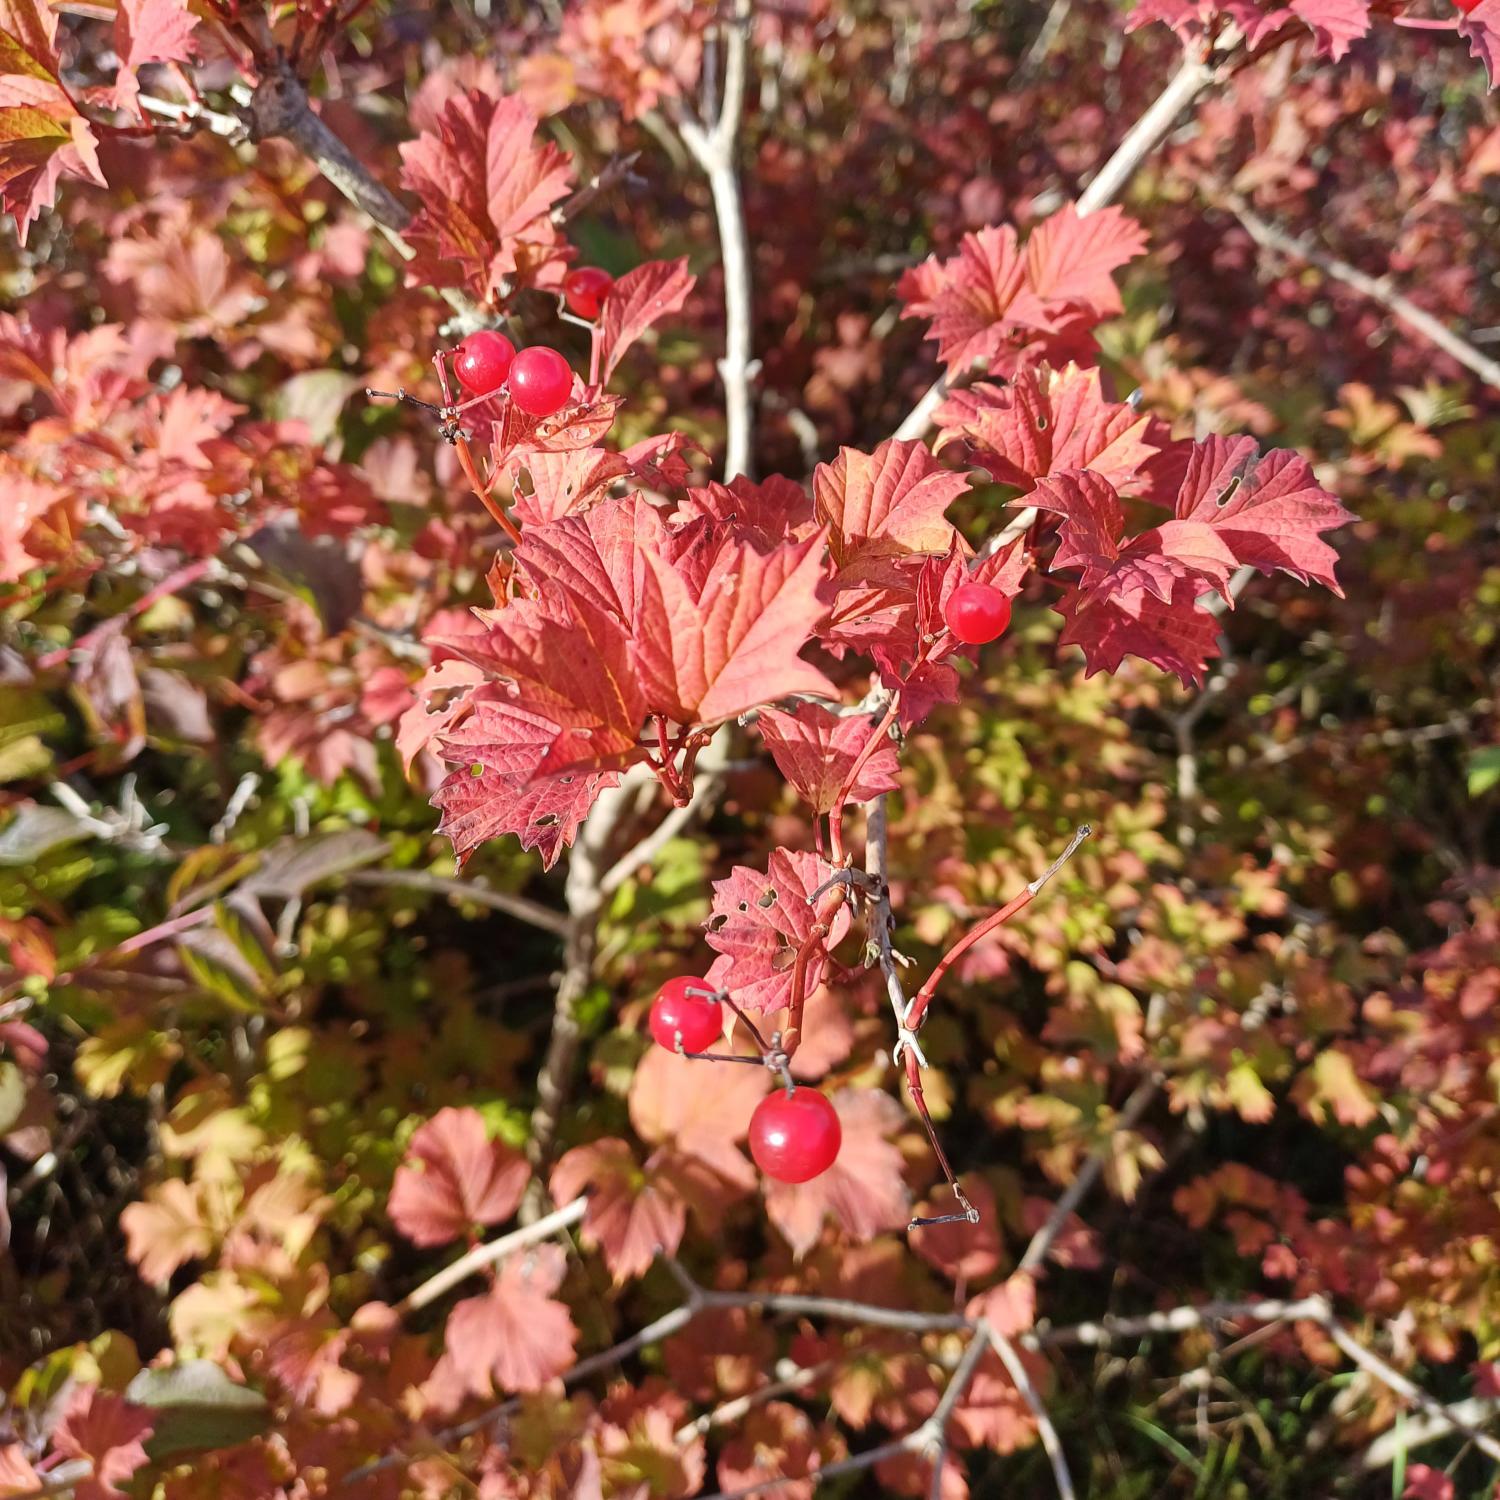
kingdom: Plantae
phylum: Tracheophyta
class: Magnoliopsida
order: Dipsacales
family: Viburnaceae
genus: Viburnum
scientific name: Viburnum opulus
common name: Kvalkved
